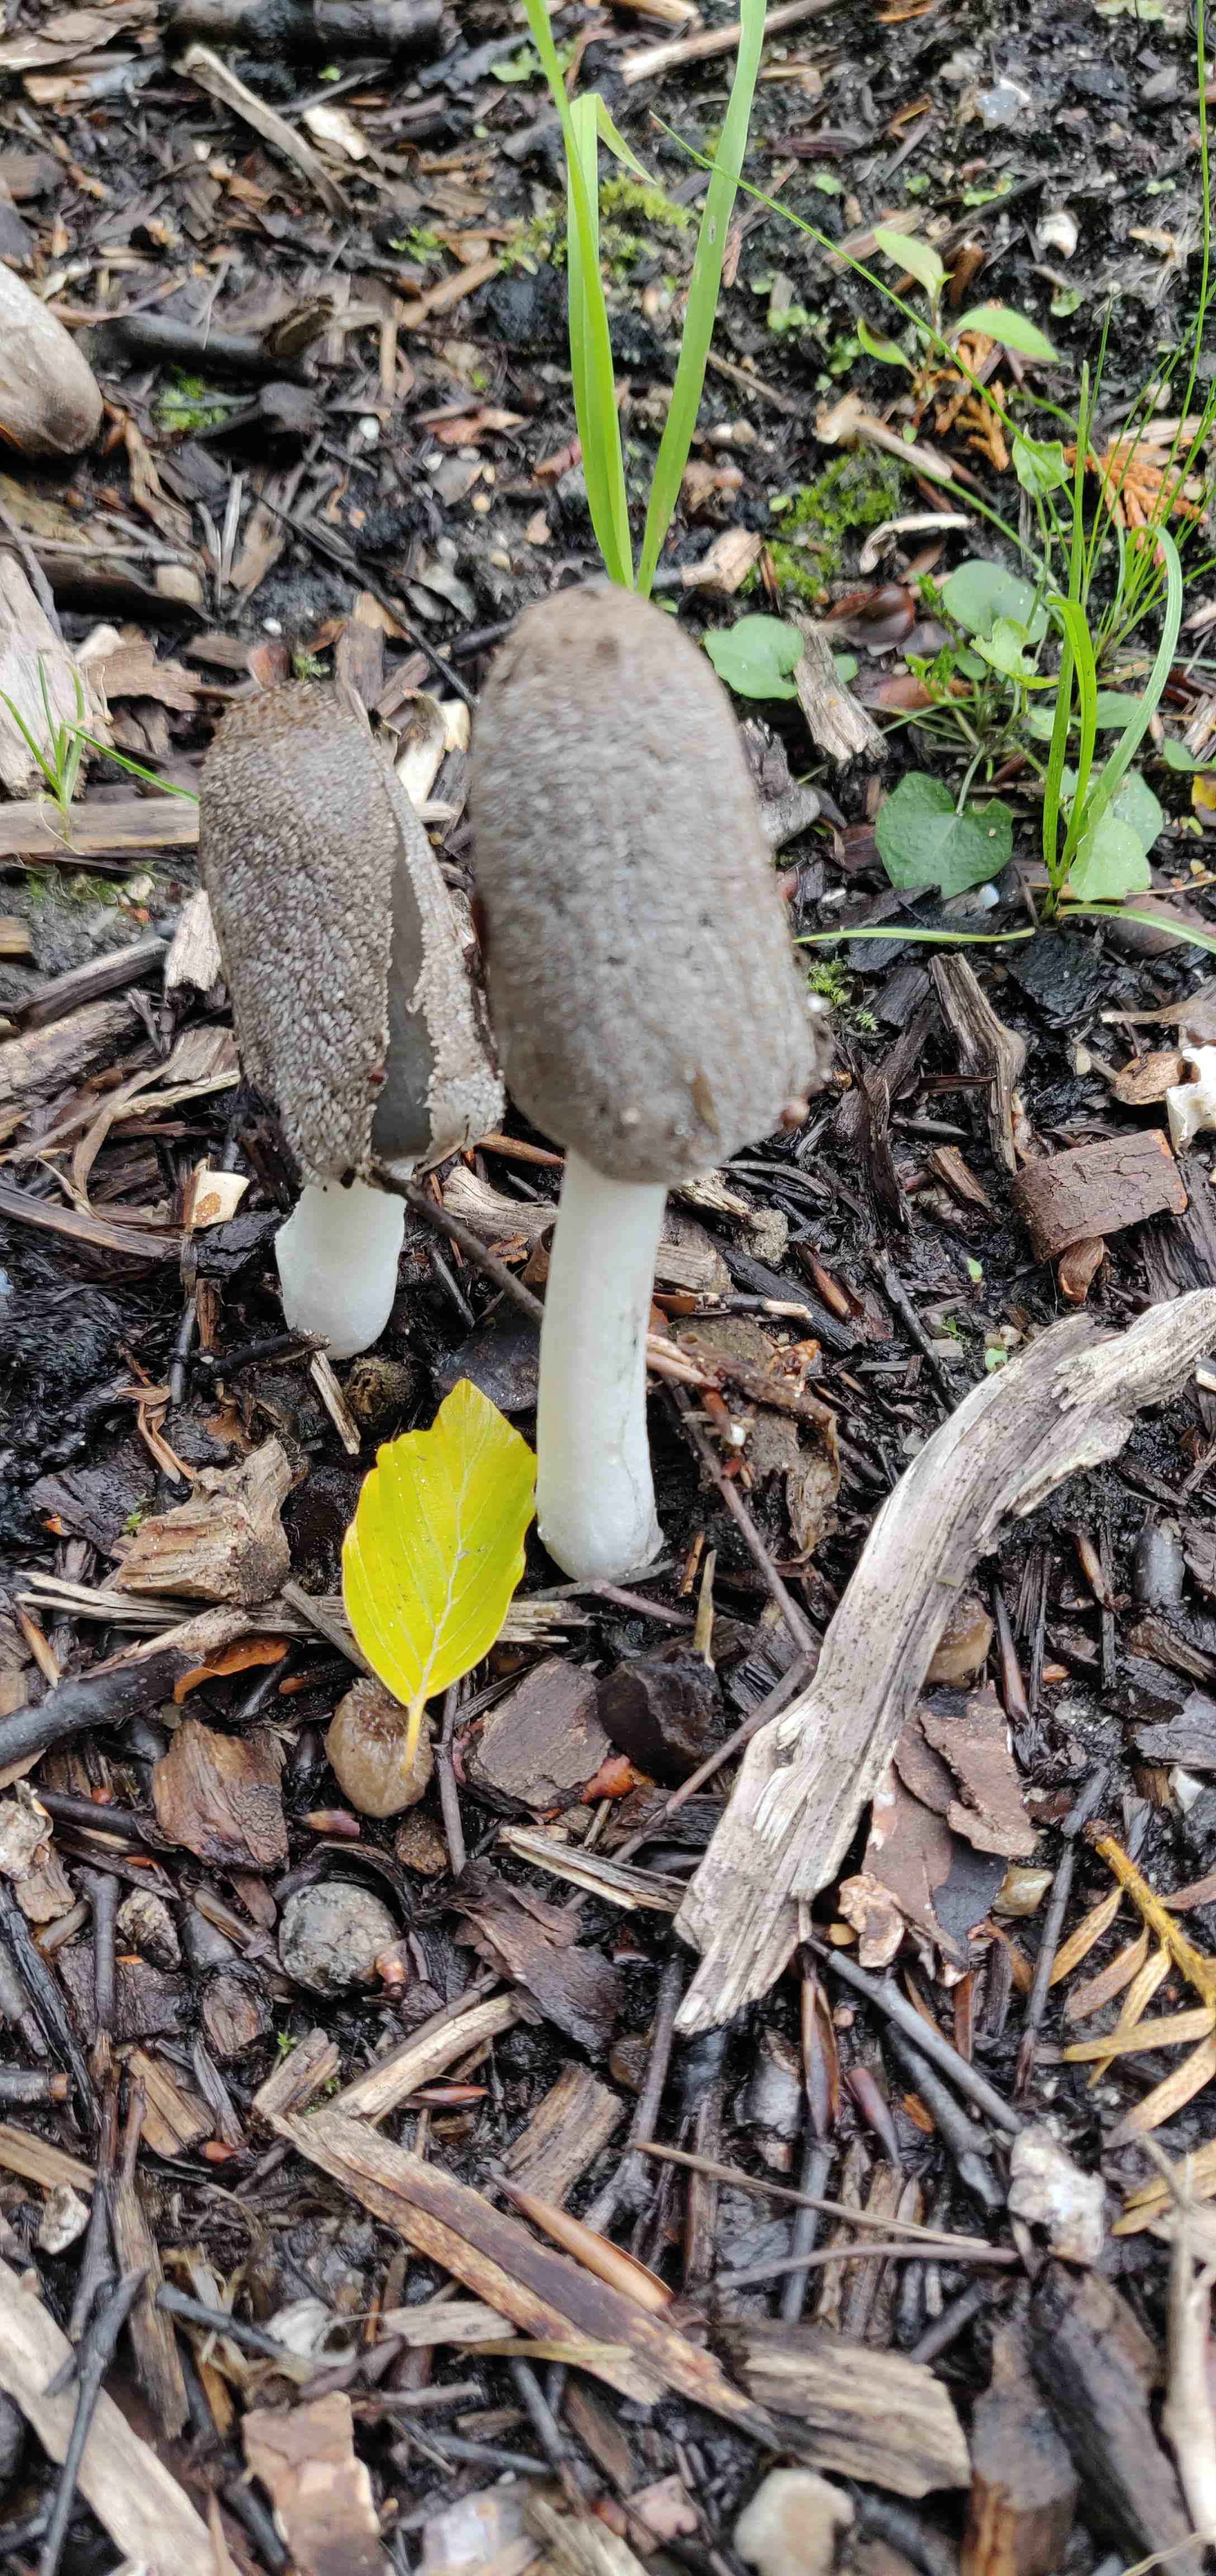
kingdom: Fungi
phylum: Basidiomycota
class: Agaricomycetes
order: Agaricales
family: Psathyrellaceae
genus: Coprinellus
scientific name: Coprinellus
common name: blækhat
